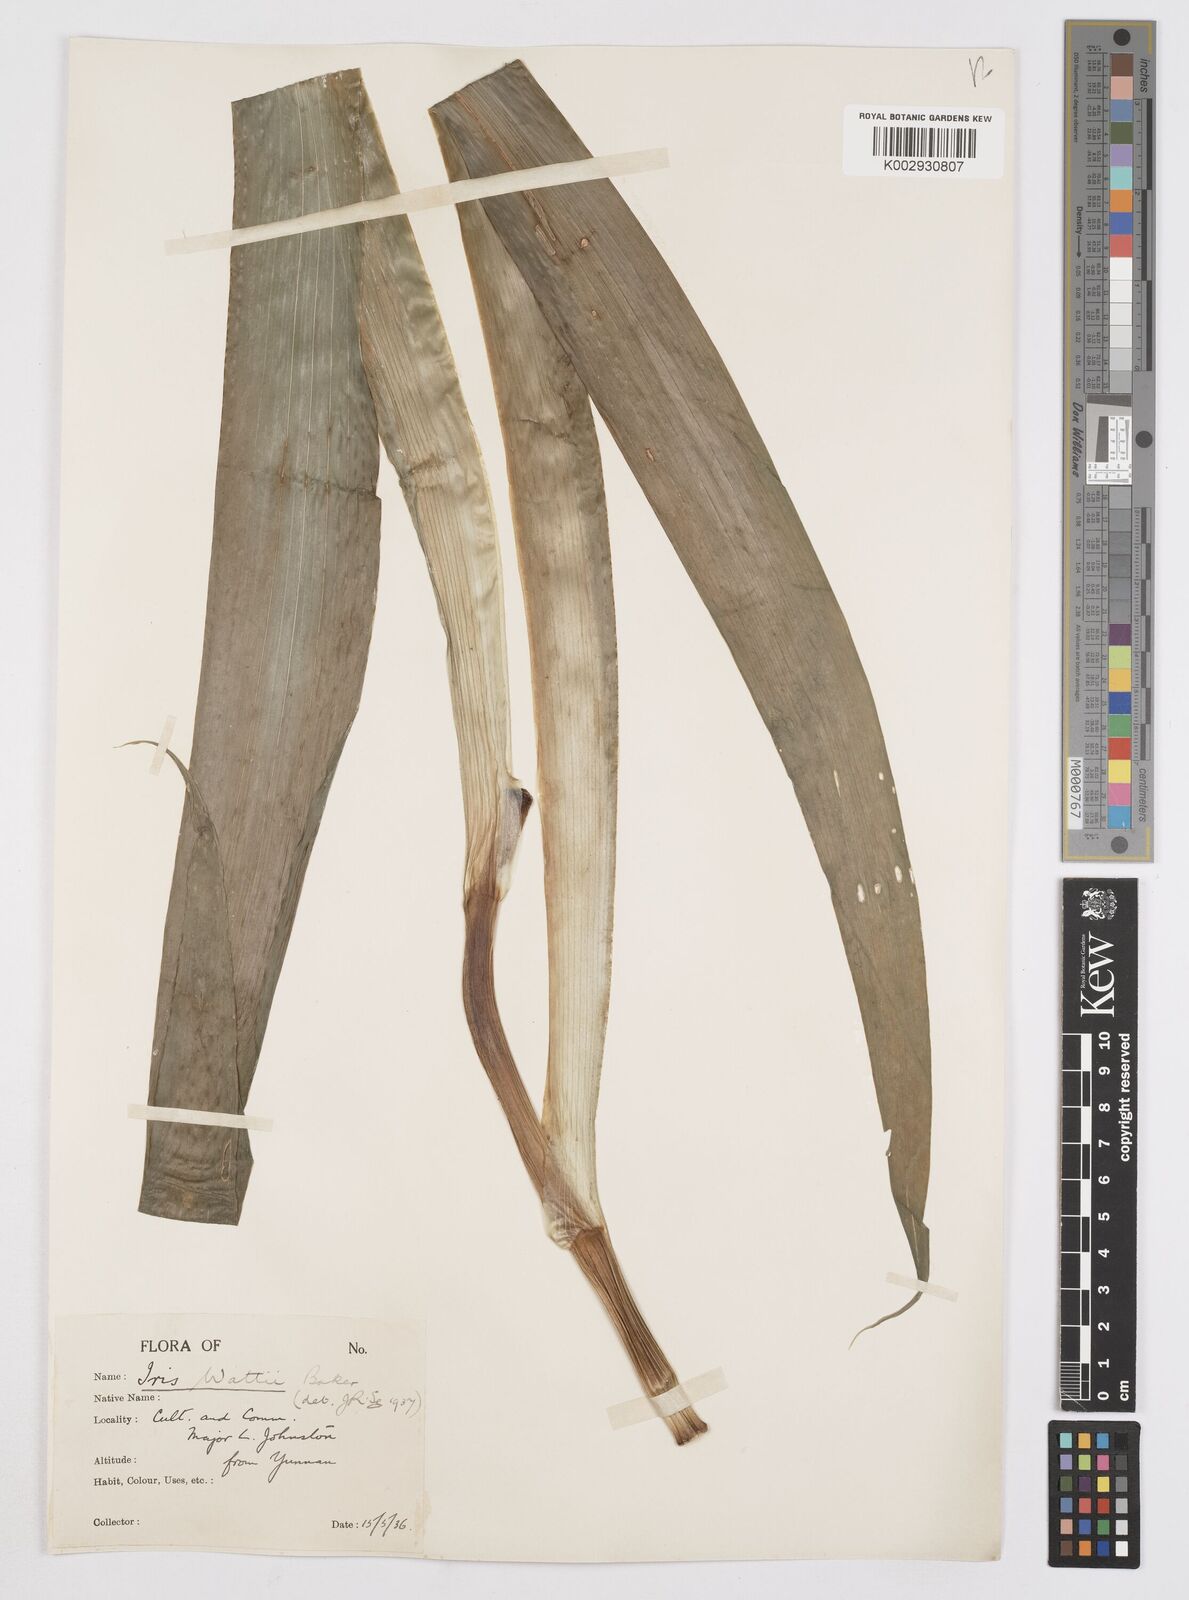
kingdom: Plantae
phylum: Tracheophyta
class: Liliopsida
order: Asparagales
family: Iridaceae
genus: Iris
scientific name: Iris wattii
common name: Fan-shape iris
